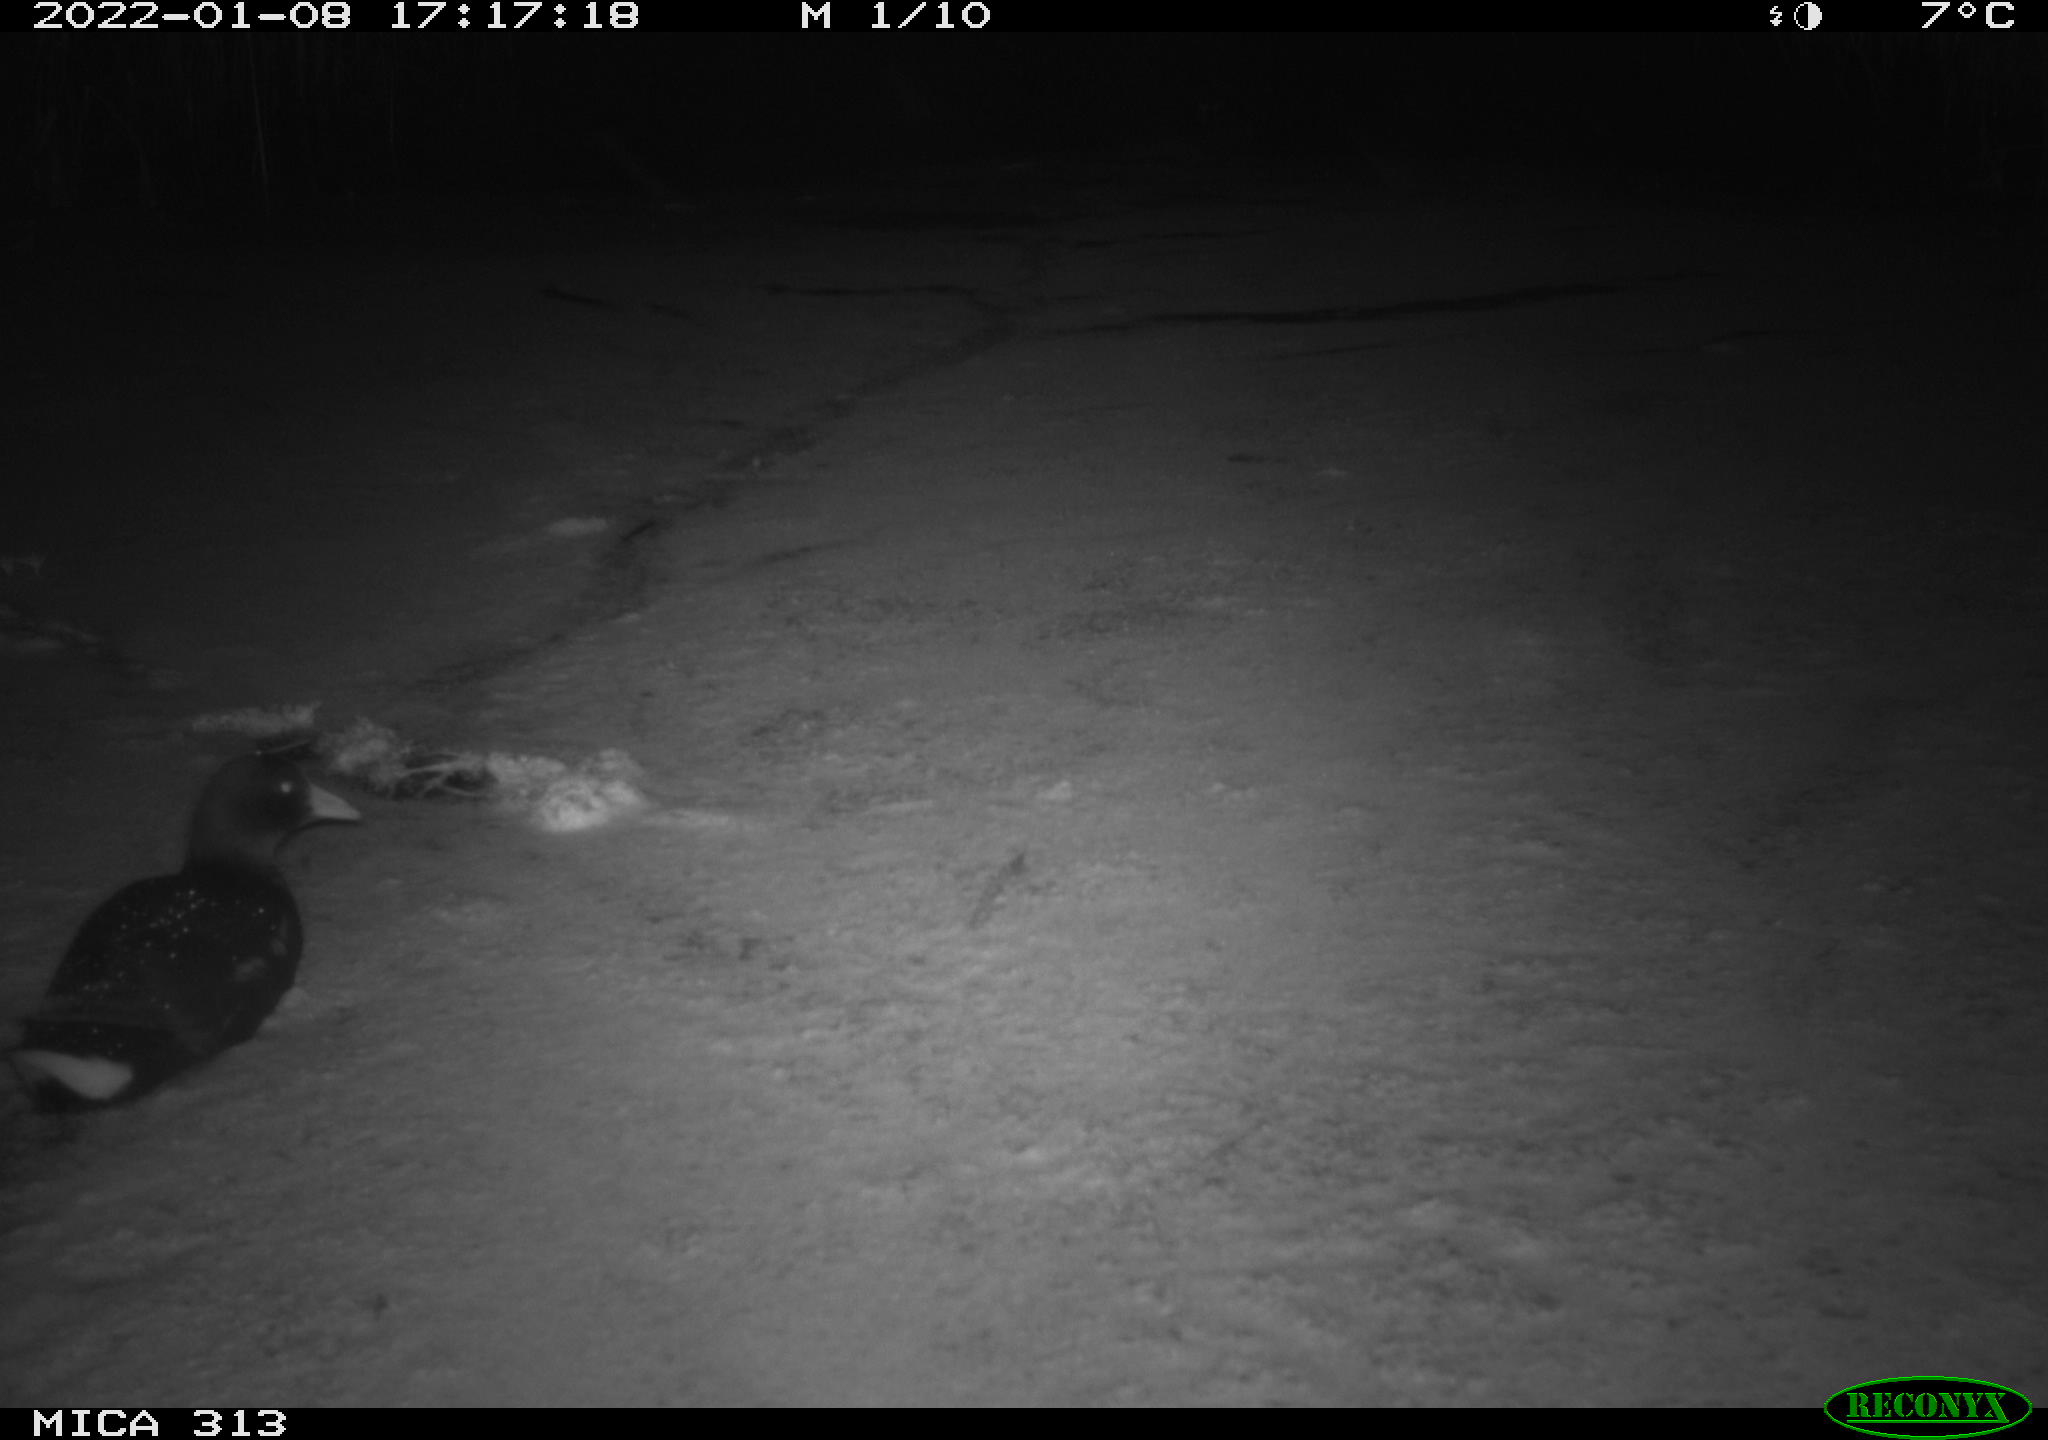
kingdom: Animalia
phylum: Chordata
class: Aves
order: Gruiformes
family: Rallidae
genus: Gallinula
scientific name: Gallinula chloropus
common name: Common moorhen
